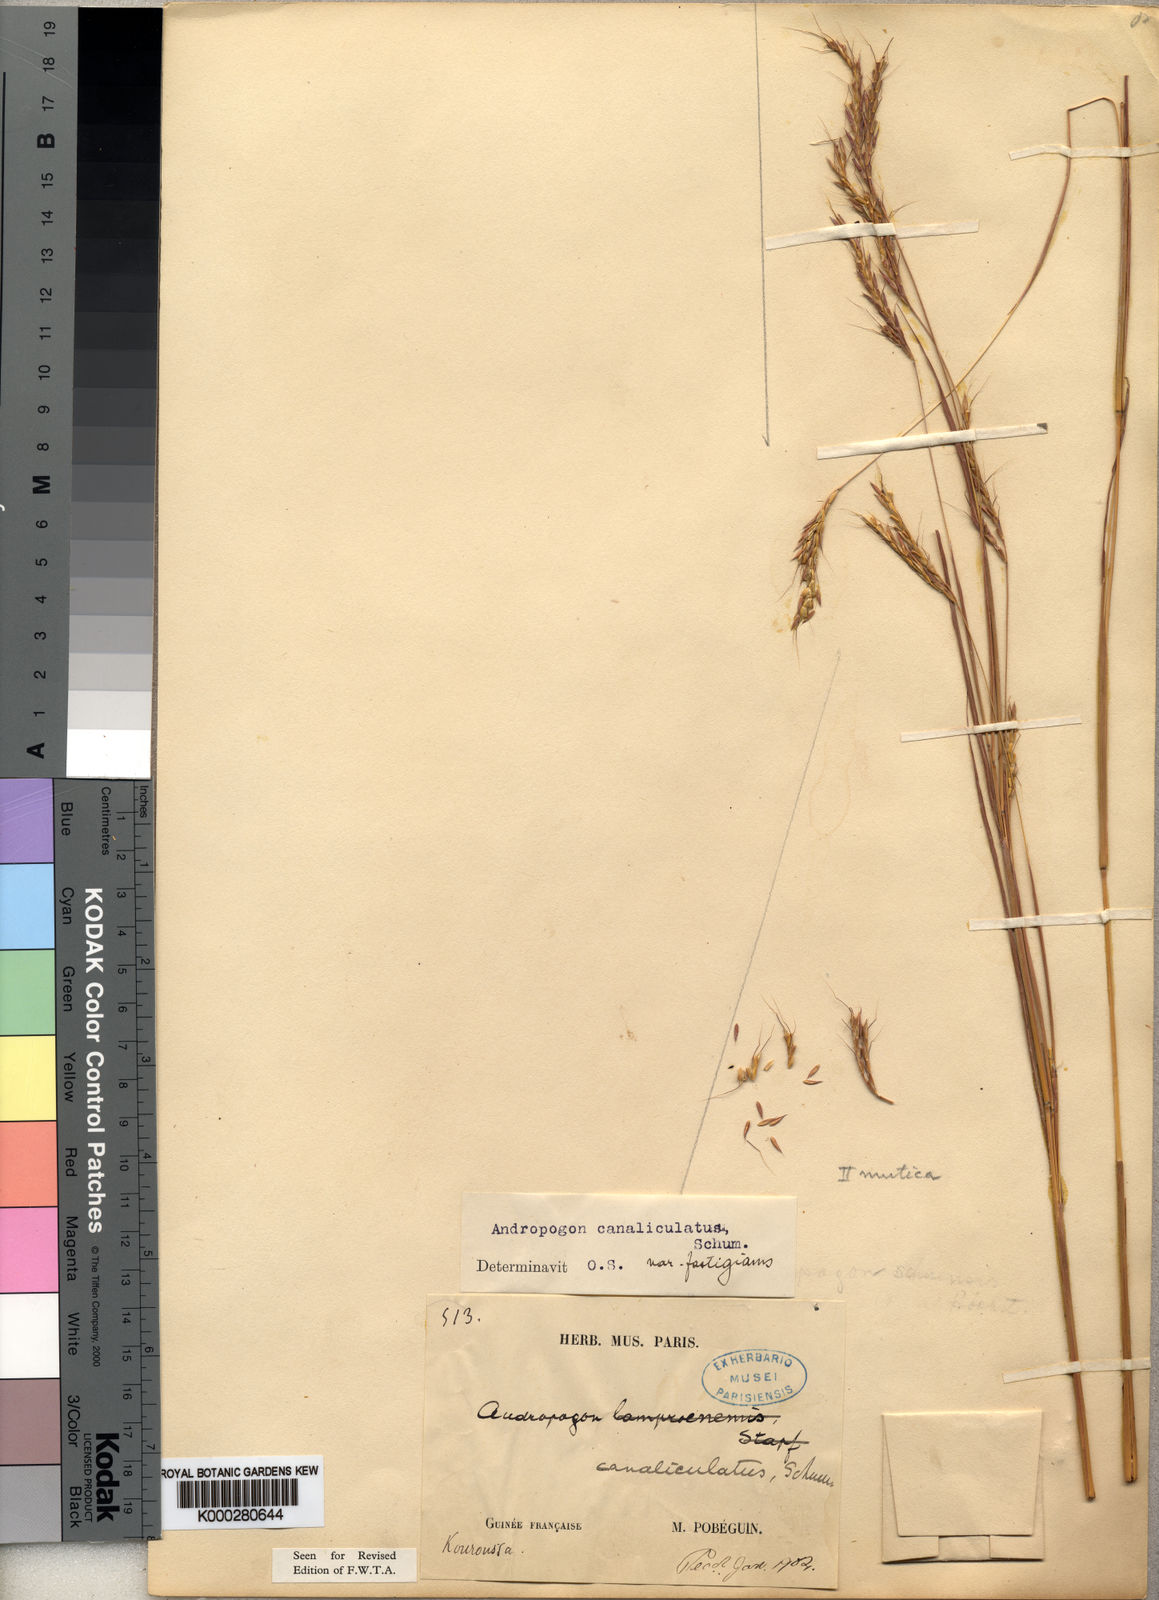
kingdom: Plantae
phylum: Tracheophyta
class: Liliopsida
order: Poales
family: Poaceae
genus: Andropogon
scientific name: Andropogon canaliculatus
